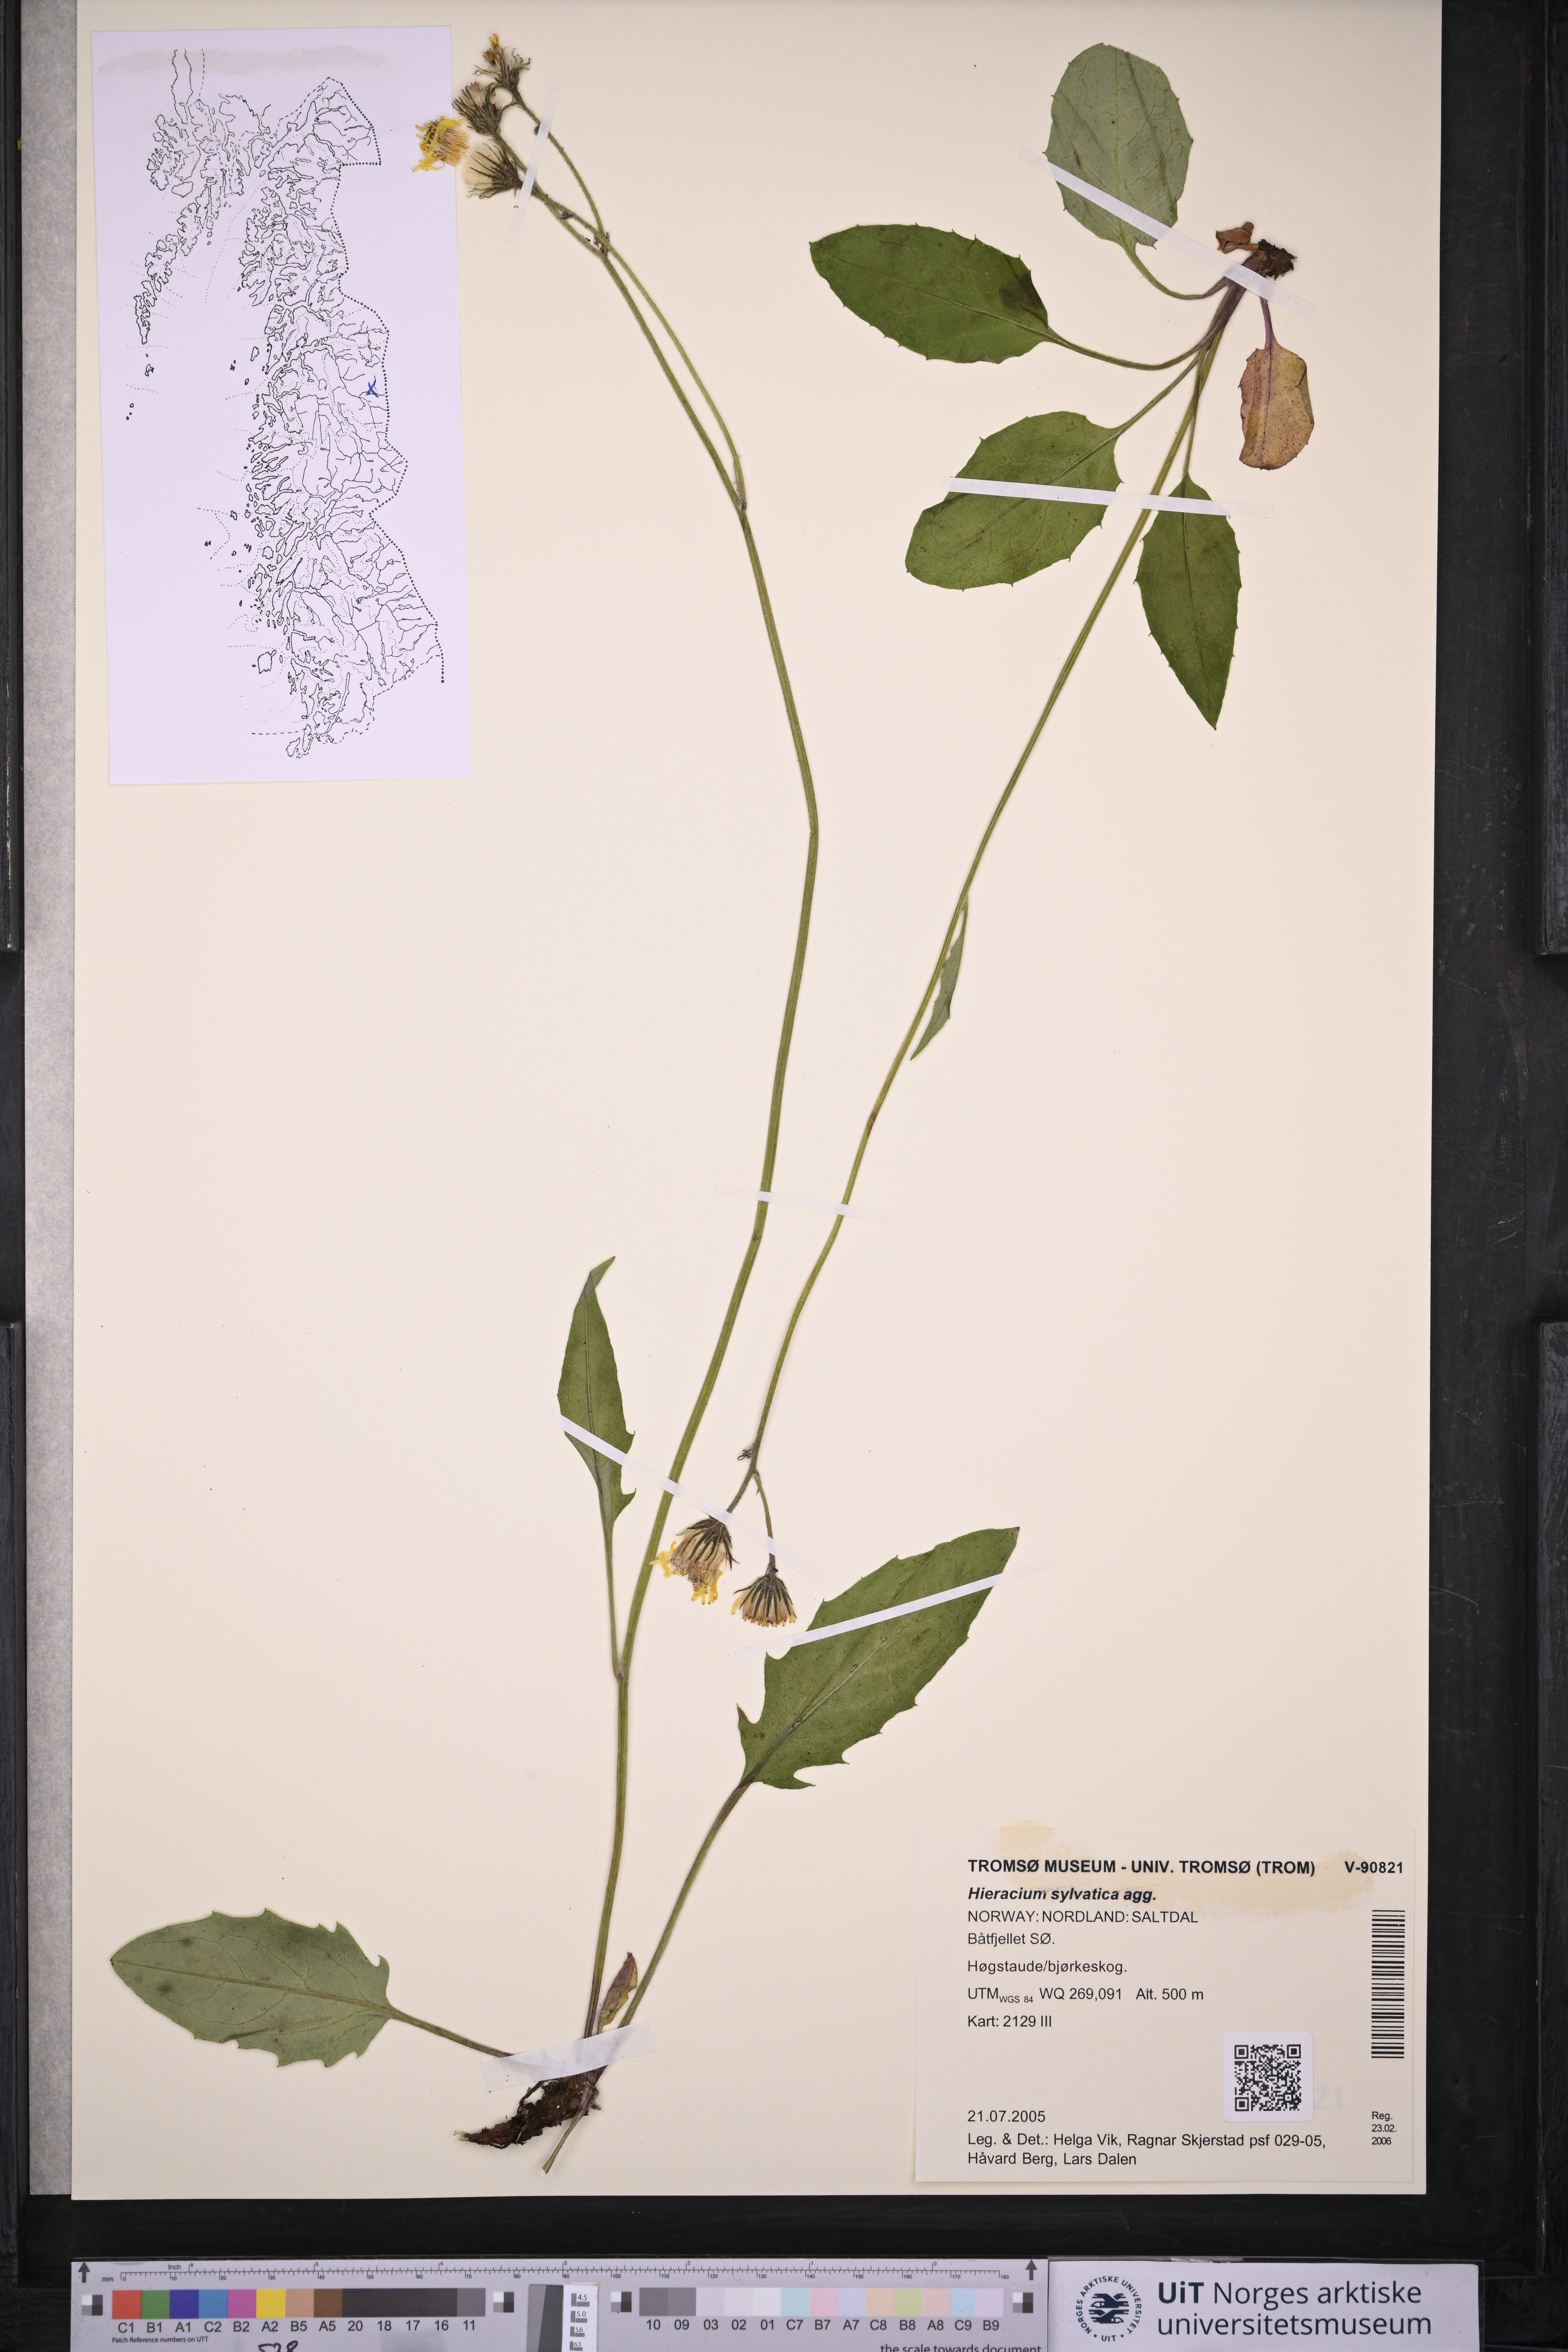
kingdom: Plantae
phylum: Tracheophyta
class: Magnoliopsida
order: Asterales
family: Asteraceae
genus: Hieracium
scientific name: Hieracium
